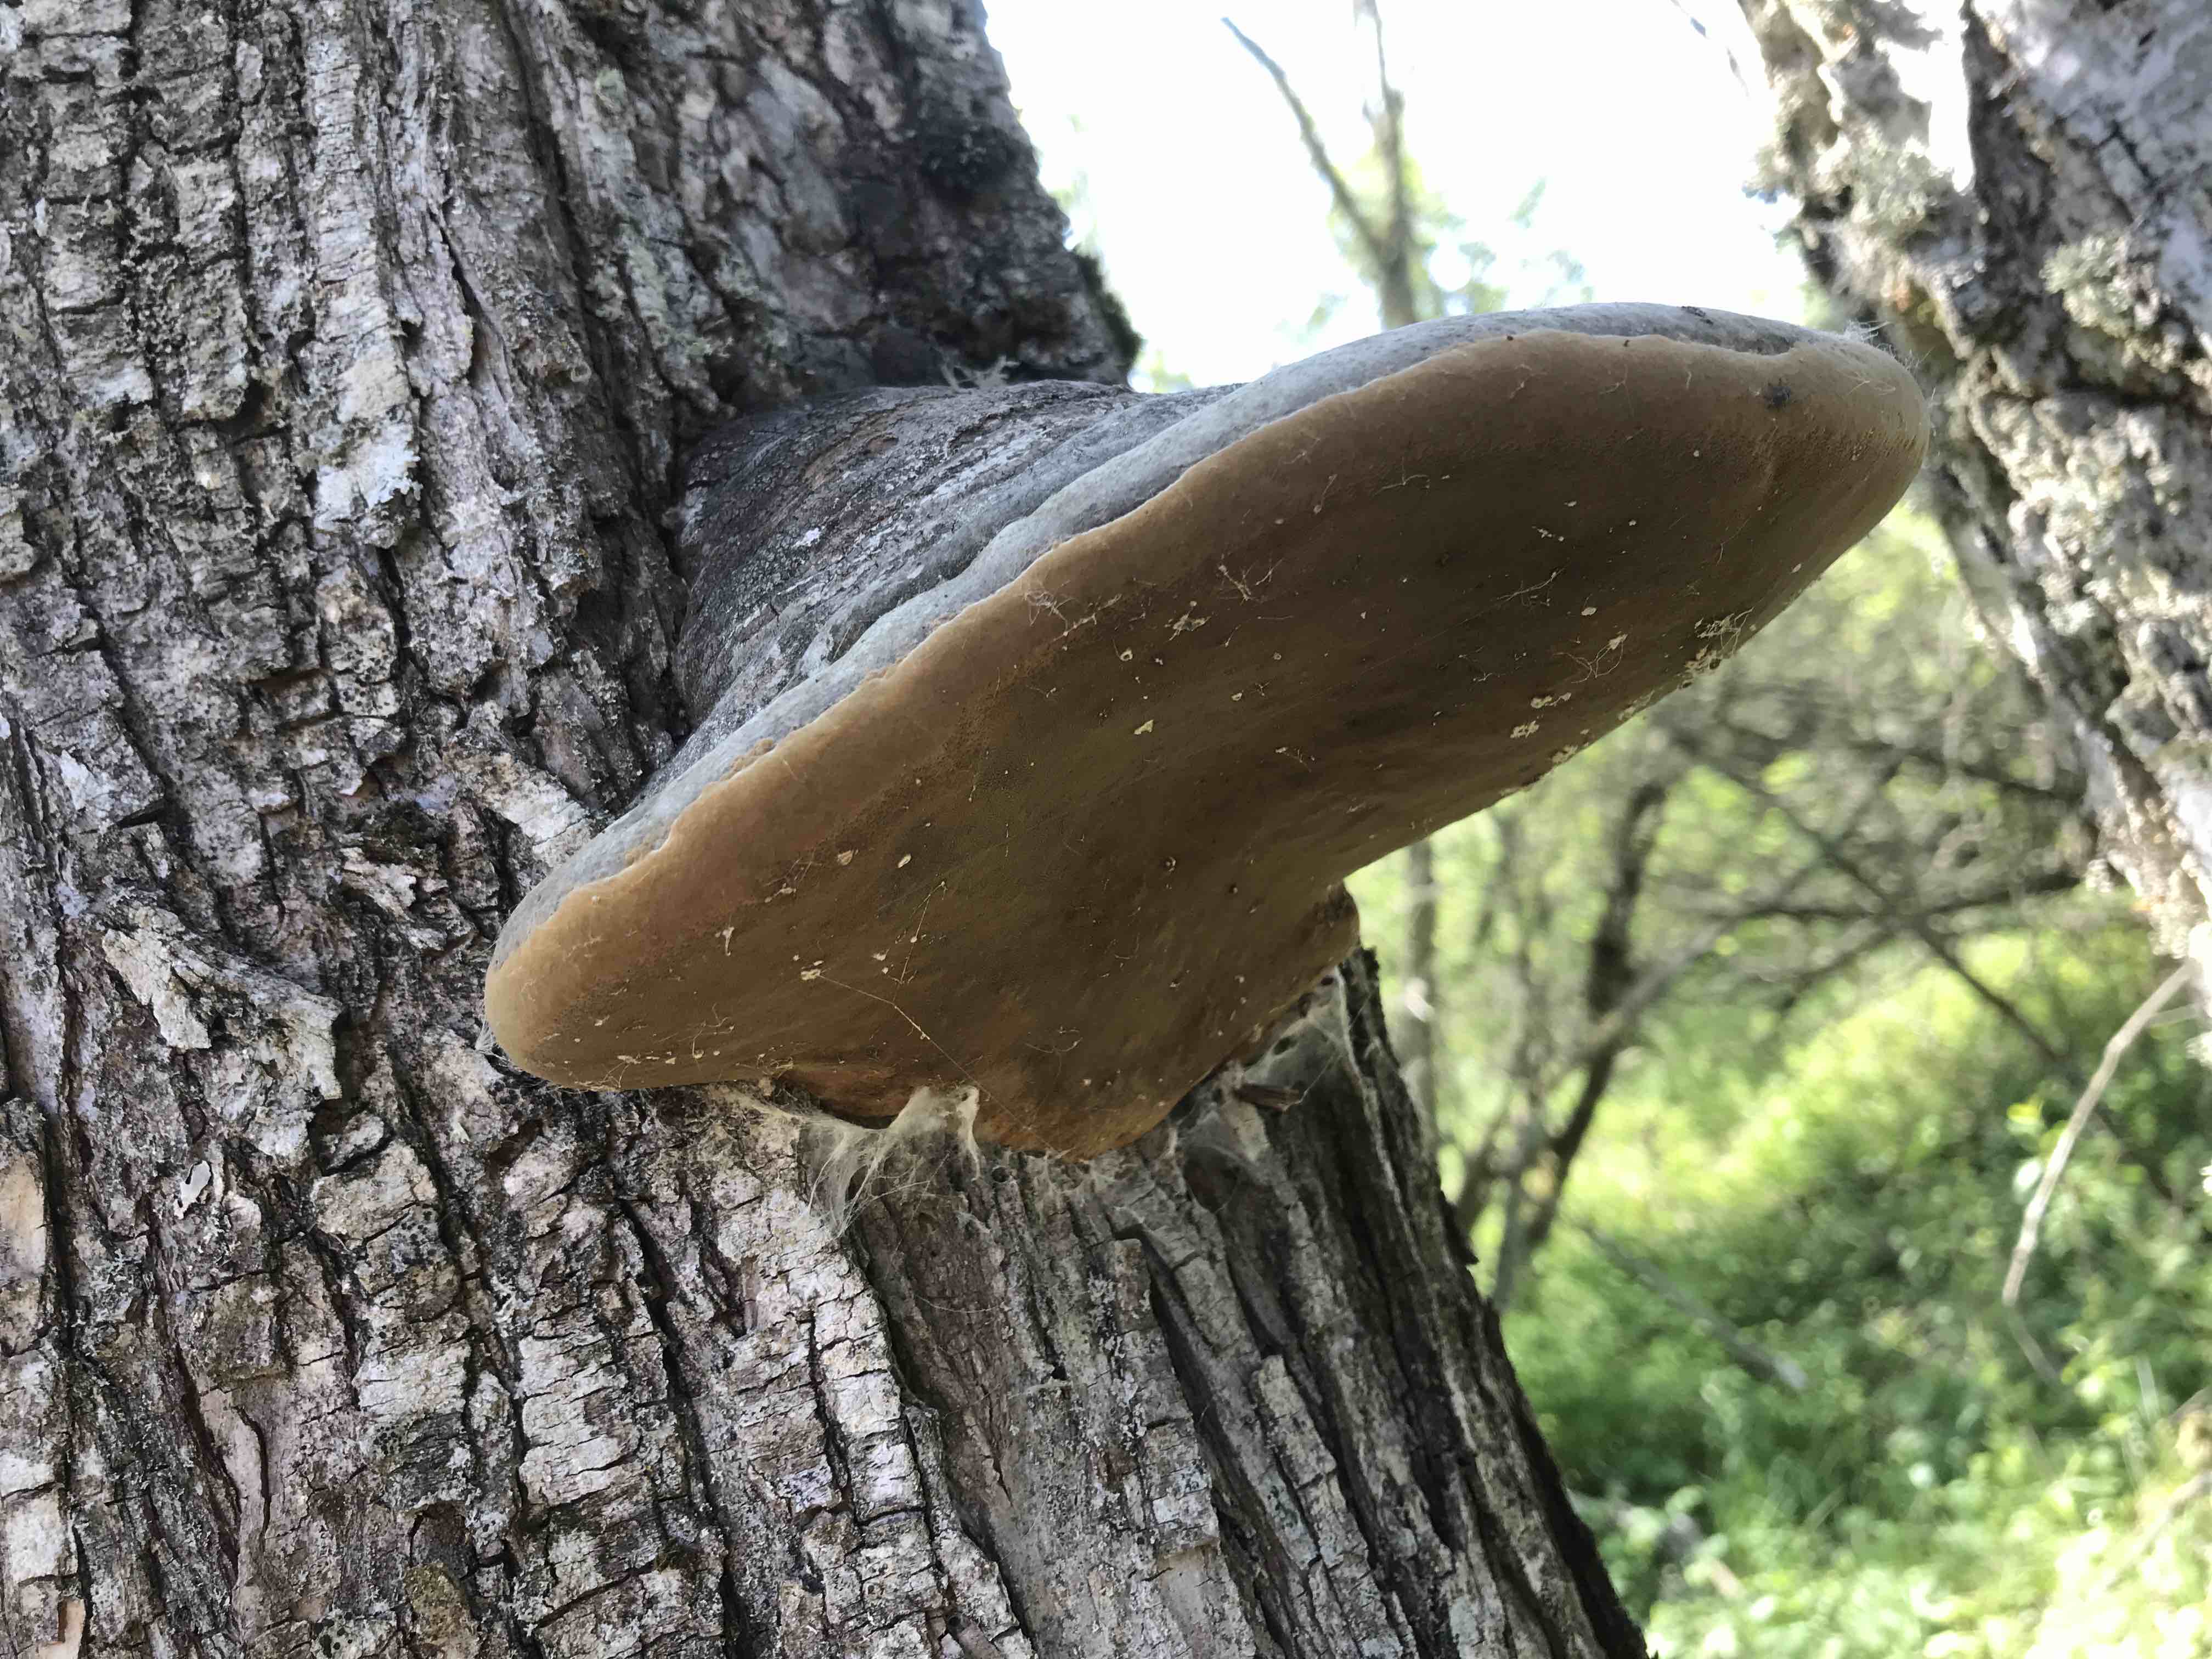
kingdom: Fungi
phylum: Basidiomycota
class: Agaricomycetes
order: Hymenochaetales
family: Hymenochaetaceae
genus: Phellinus
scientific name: Phellinus
